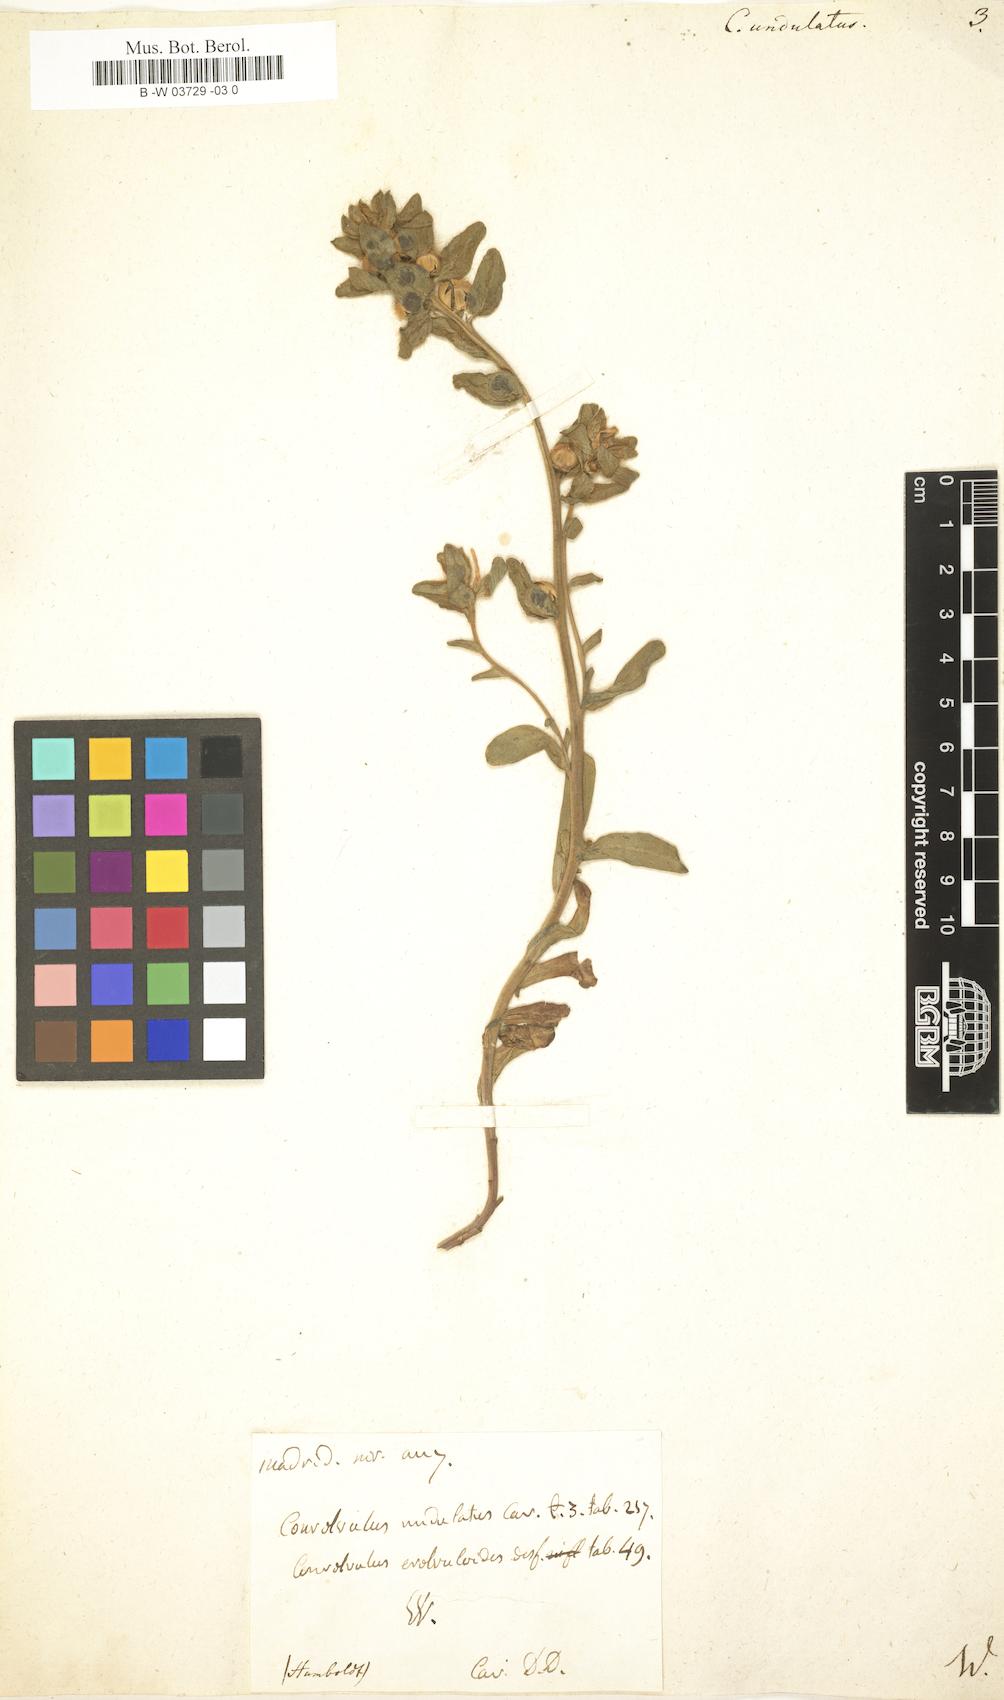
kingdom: Plantae
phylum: Tracheophyta
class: Magnoliopsida
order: Solanales
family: Convolvulaceae
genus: Convolvulus
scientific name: Convolvulus humilis
